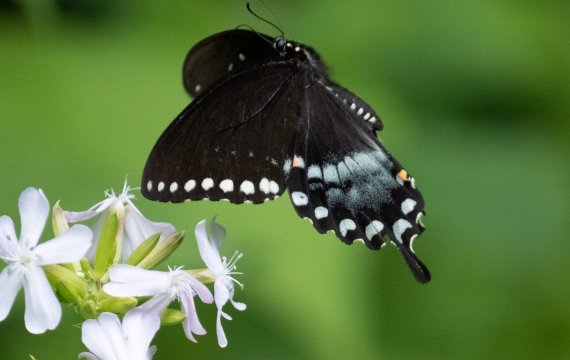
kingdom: Animalia
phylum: Arthropoda
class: Insecta
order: Lepidoptera
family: Papilionidae
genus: Pterourus
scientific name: Pterourus troilus
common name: Spicebush Swallowtail
